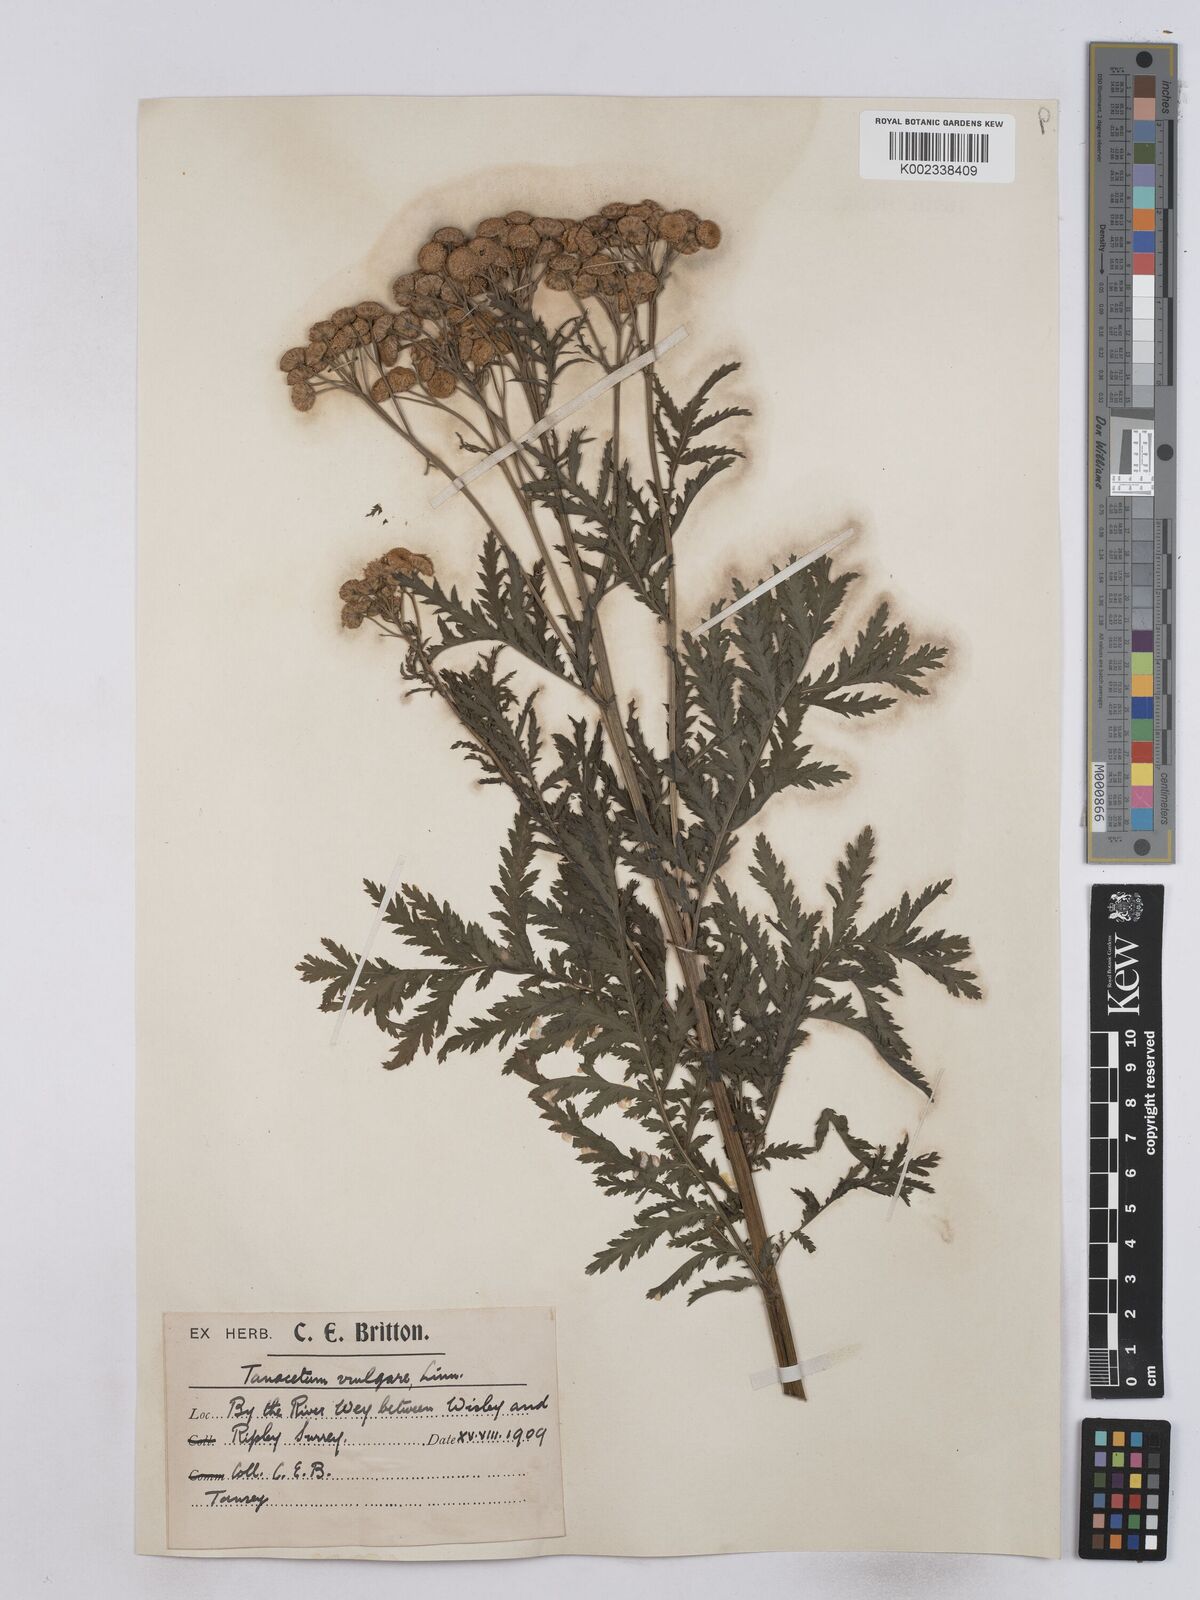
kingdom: Plantae
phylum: Tracheophyta
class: Magnoliopsida
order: Asterales
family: Asteraceae
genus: Tanacetum
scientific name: Tanacetum vulgare
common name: Common tansy
